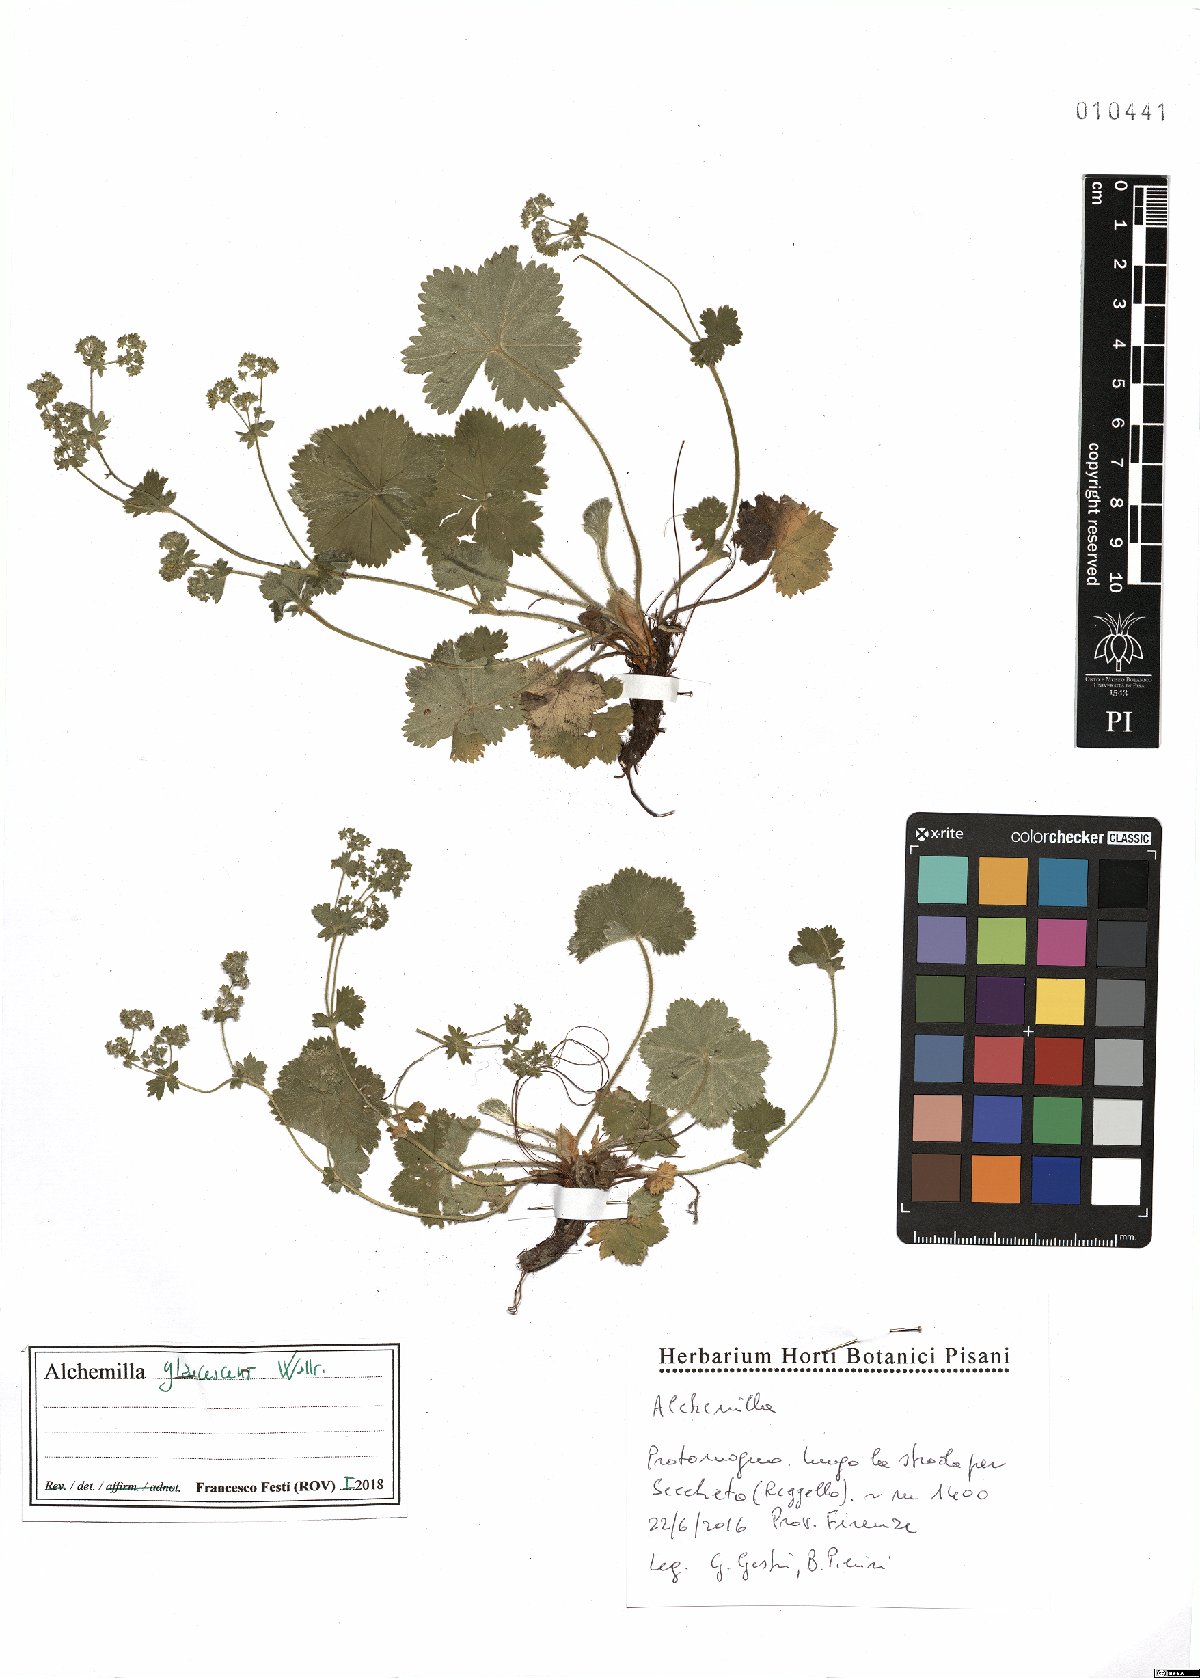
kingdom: Plantae
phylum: Tracheophyta
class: Magnoliopsida
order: Rosales
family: Rosaceae
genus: Alchemilla
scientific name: Alchemilla glaucescens
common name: Silky lady's mantle
